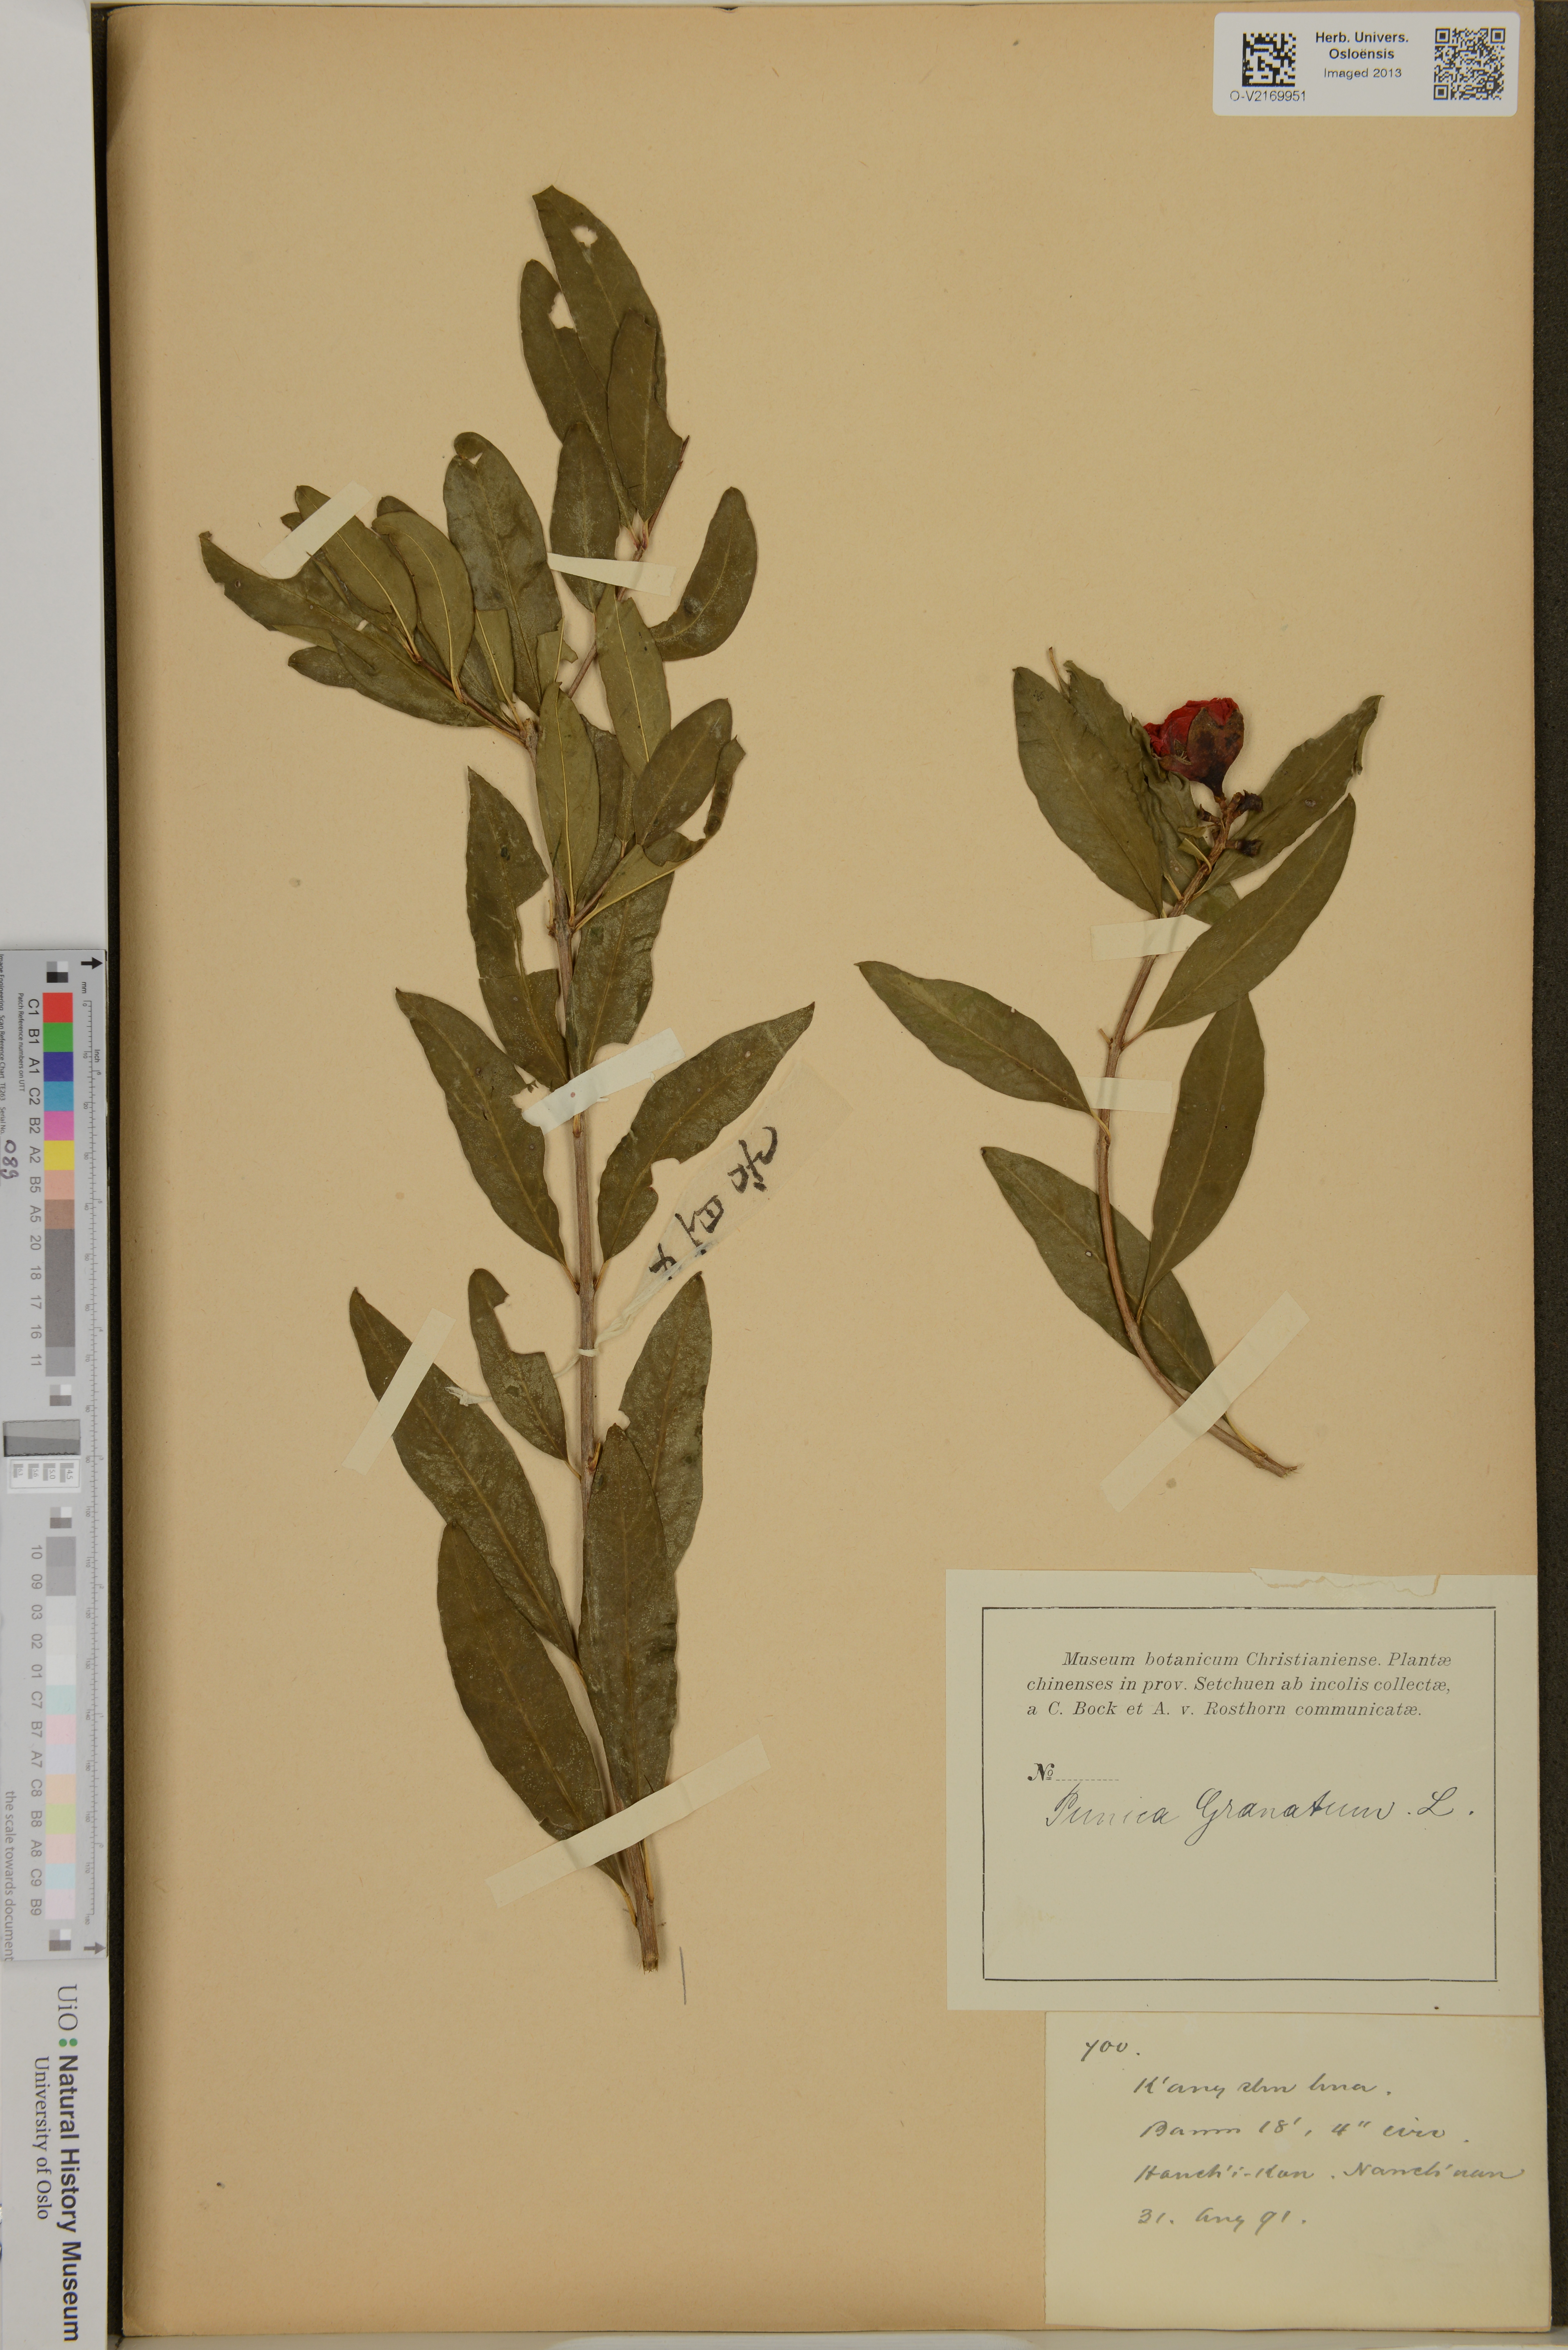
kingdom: Plantae
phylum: Tracheophyta
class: Magnoliopsida
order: Myrtales
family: Lythraceae
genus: Punica
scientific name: Punica granatum
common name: Pomegranate
